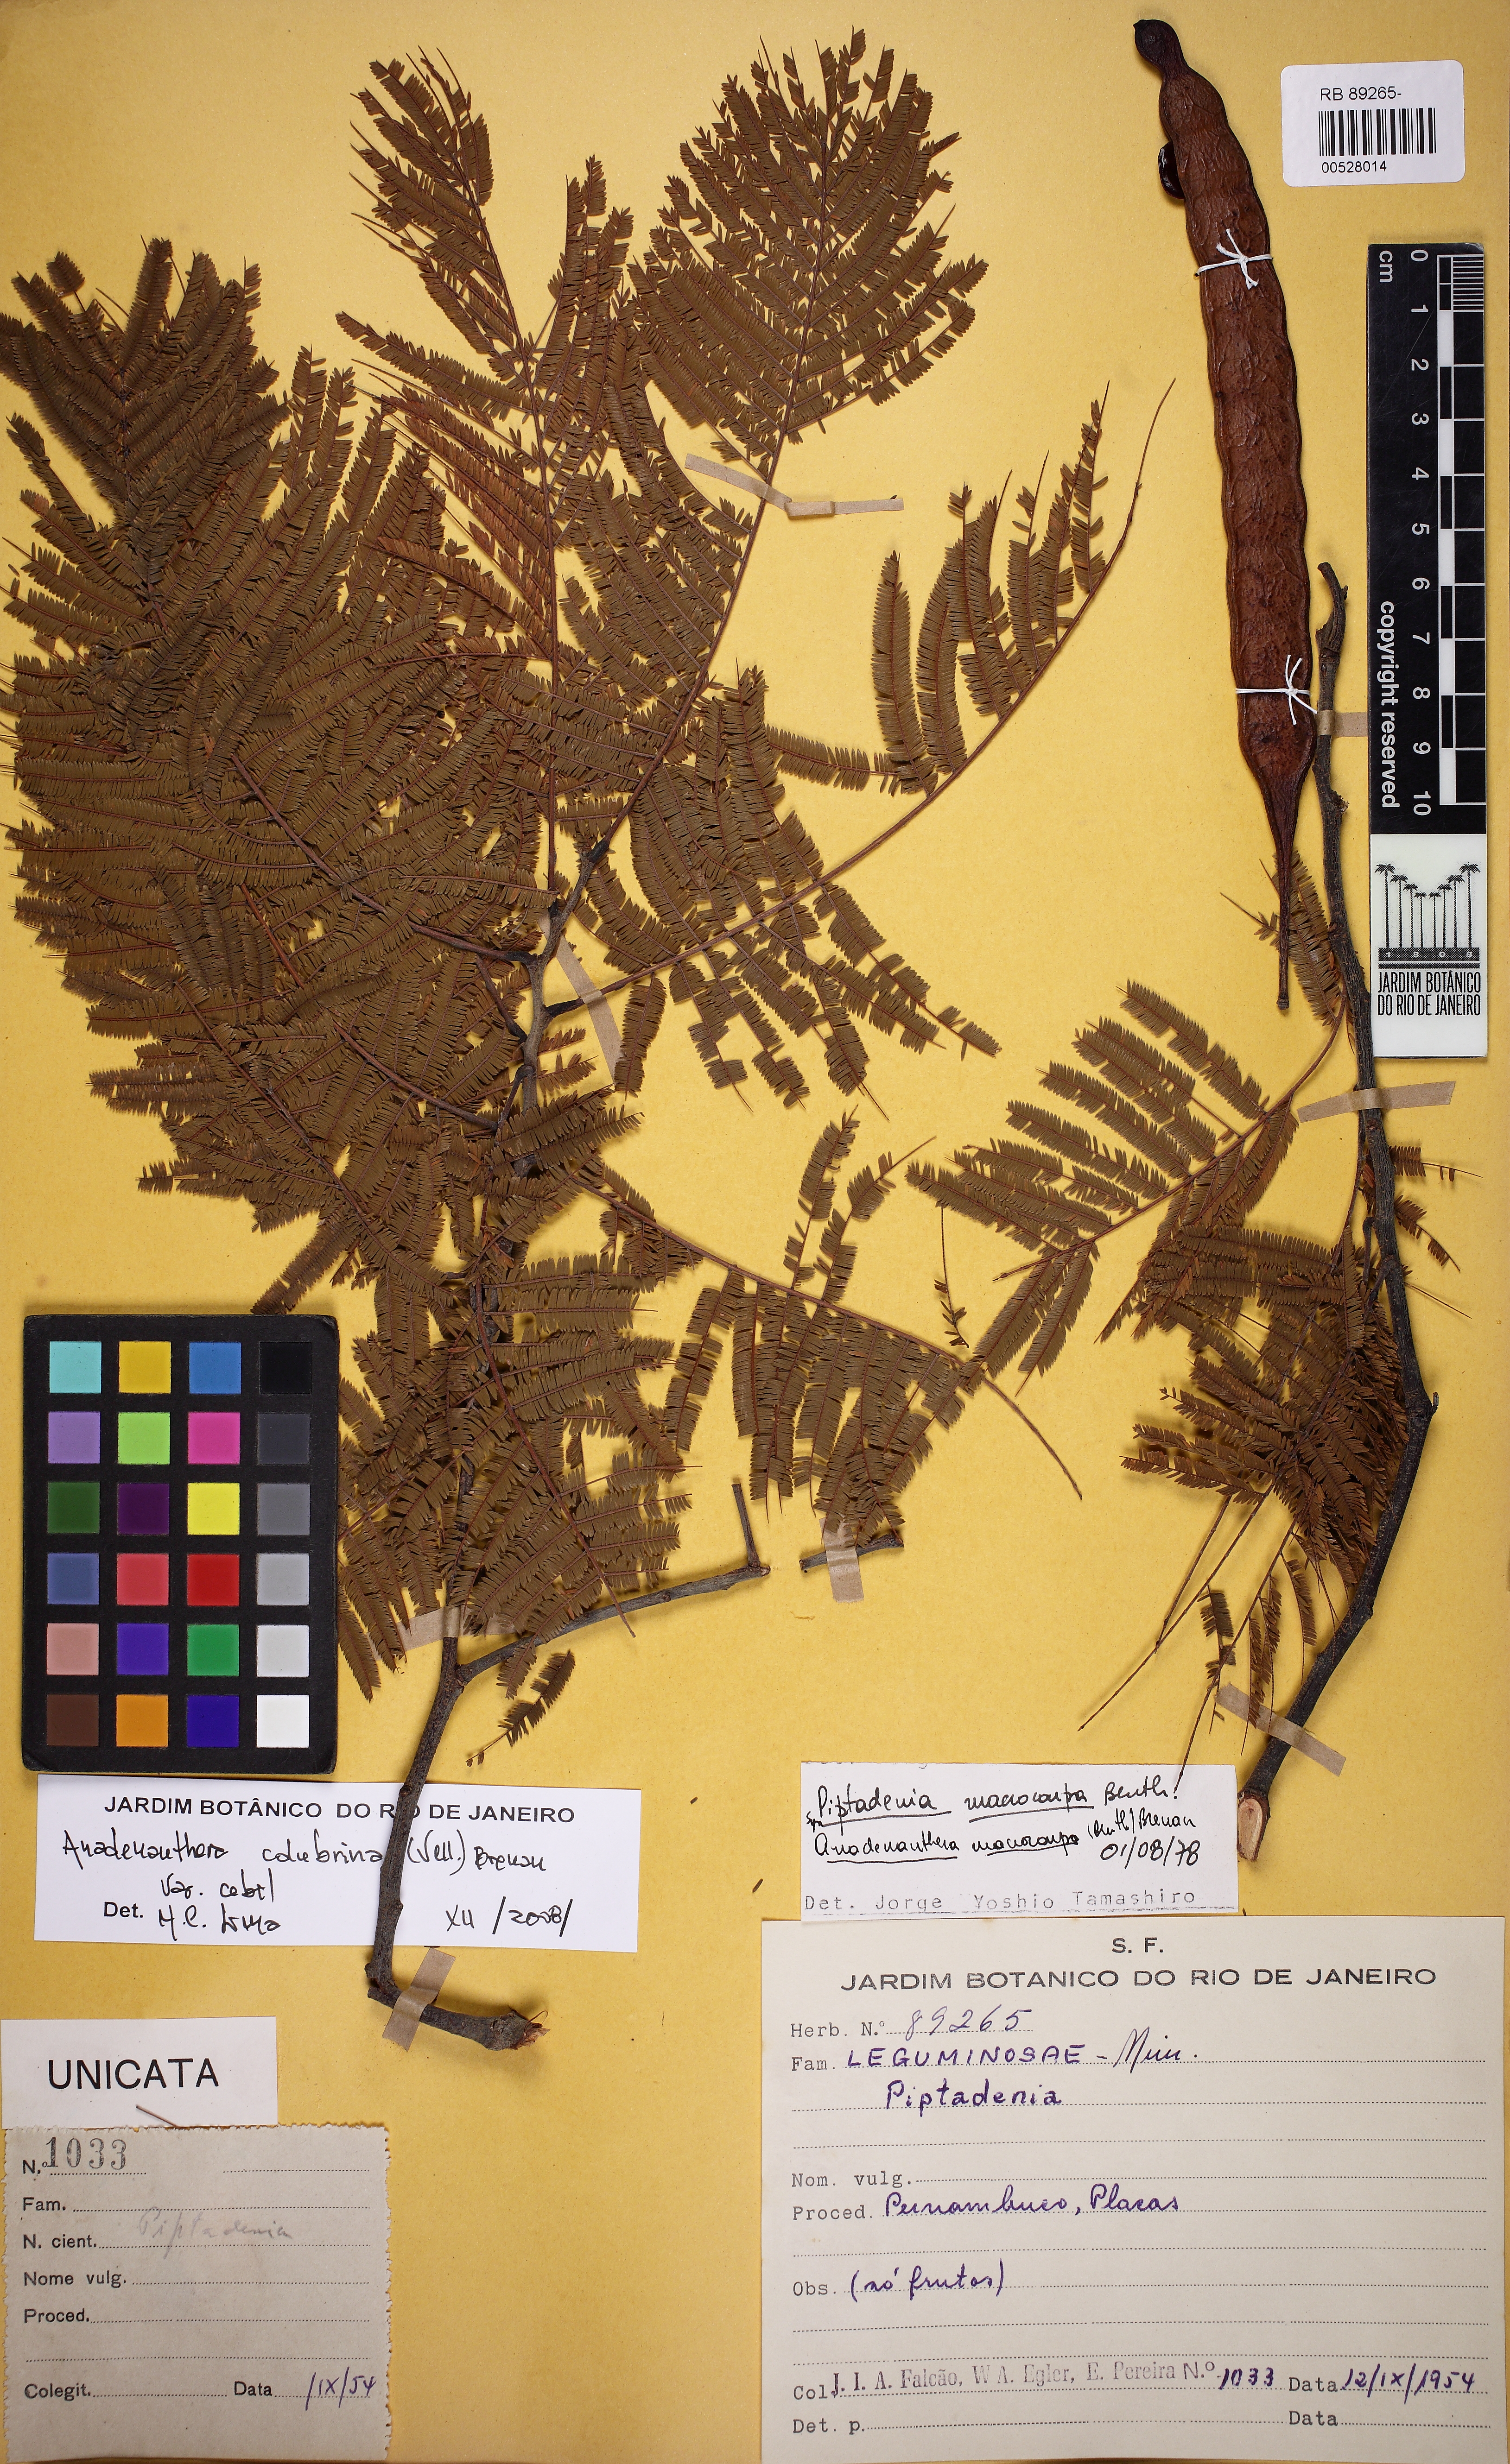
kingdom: Plantae
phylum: Tracheophyta
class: Magnoliopsida
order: Fabales
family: Fabaceae
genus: Anadenanthera
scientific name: Anadenanthera colubrina
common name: Curupay
